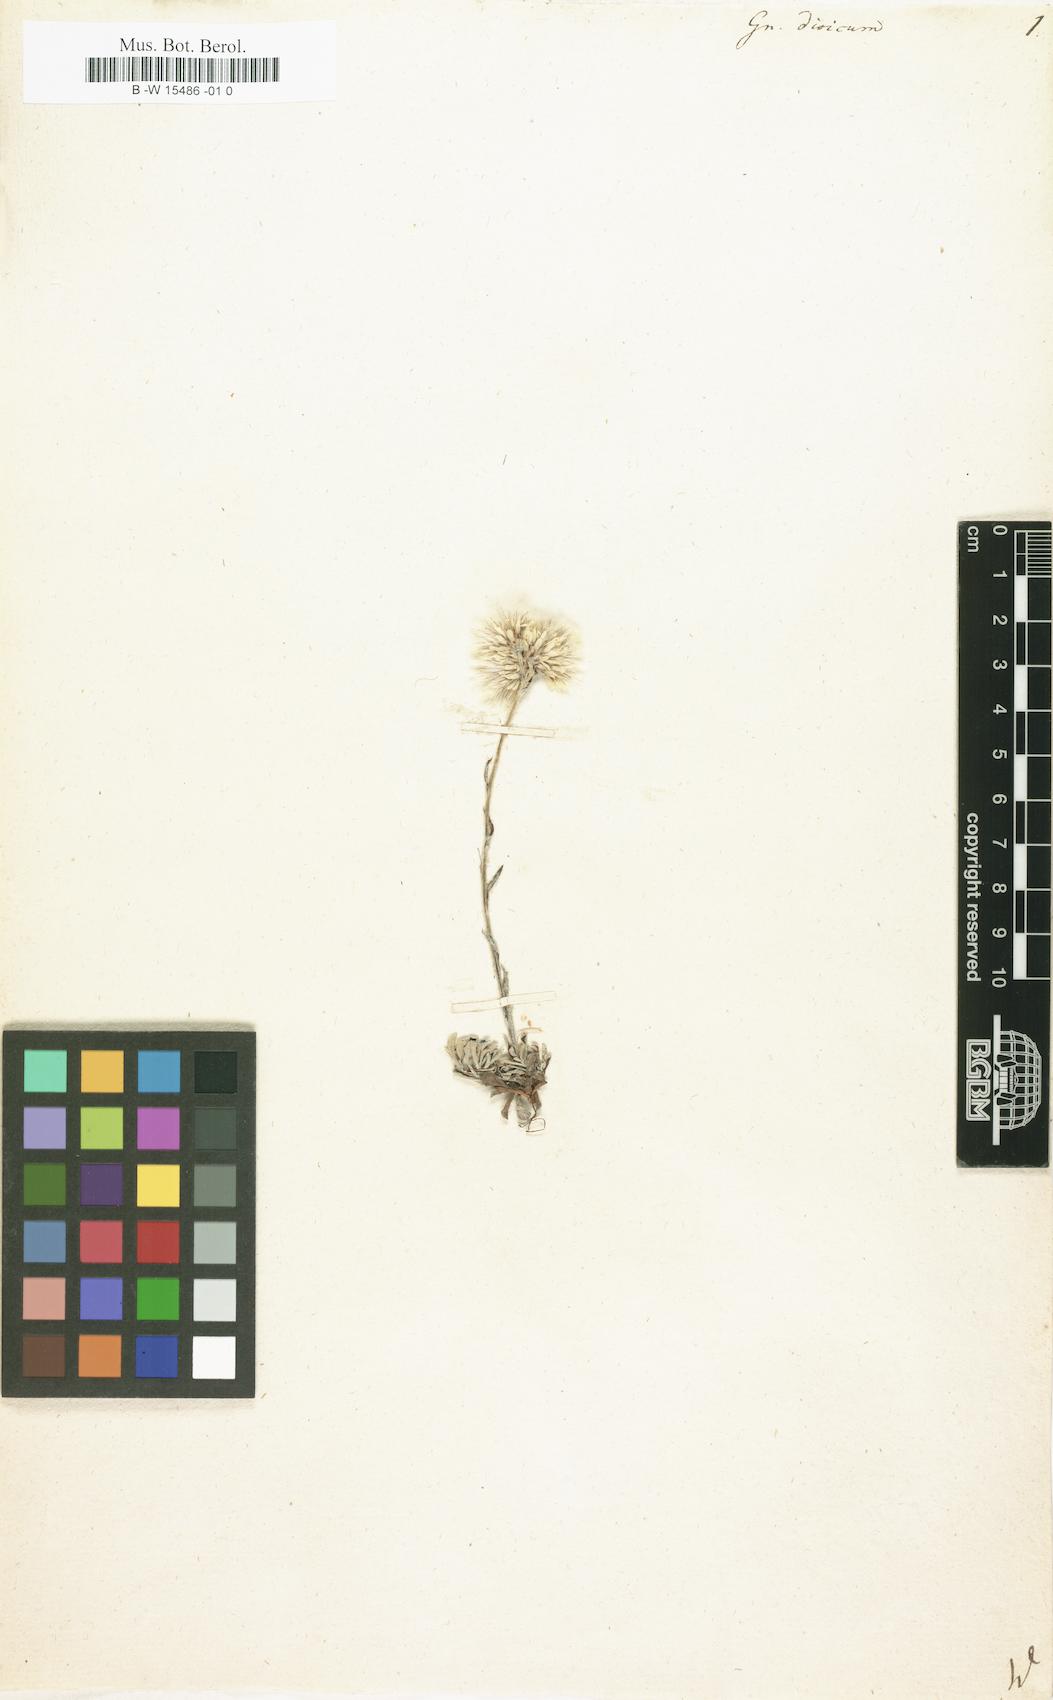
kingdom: Plantae
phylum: Tracheophyta
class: Magnoliopsida
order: Asterales
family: Asteraceae
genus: Antennaria
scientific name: Antennaria dioica
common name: Mountain everlasting
